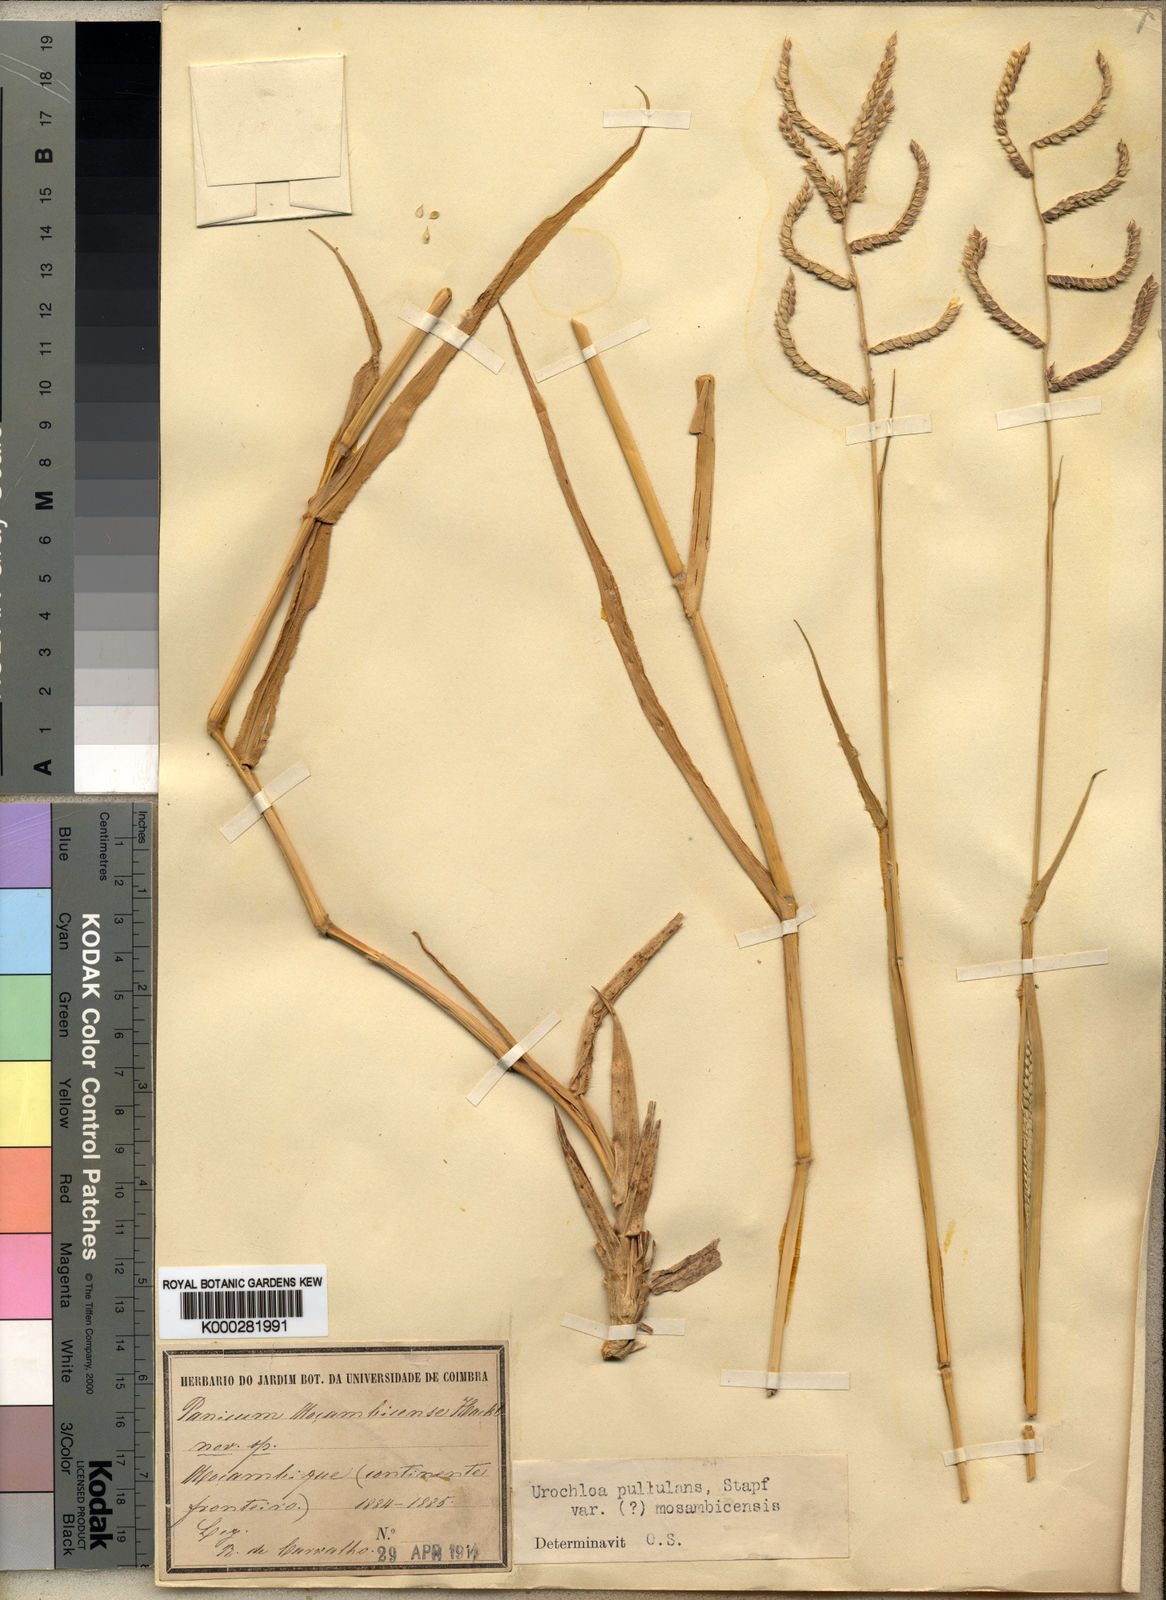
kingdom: Plantae
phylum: Tracheophyta
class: Liliopsida
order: Poales
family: Poaceae
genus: Urochloa
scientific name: Urochloa trichopus
